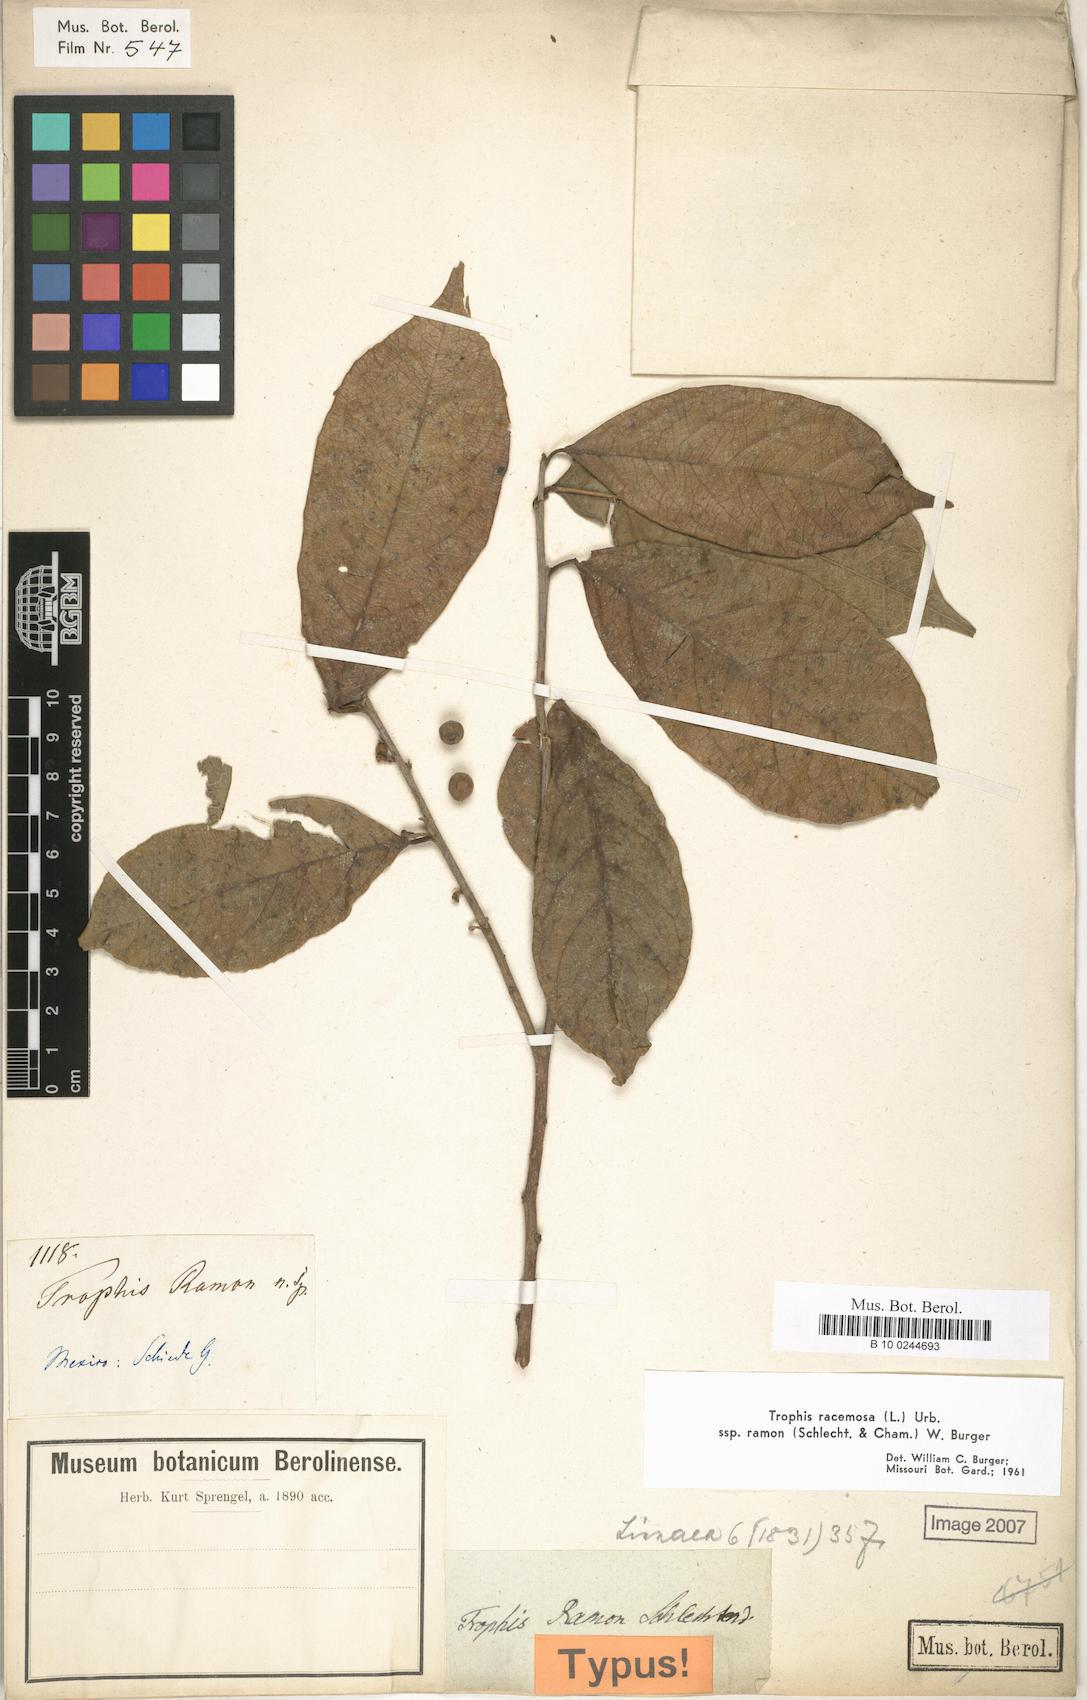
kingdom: Plantae
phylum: Tracheophyta
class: Magnoliopsida
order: Rosales
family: Moraceae
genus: Trophis
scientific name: Trophis racemosa
